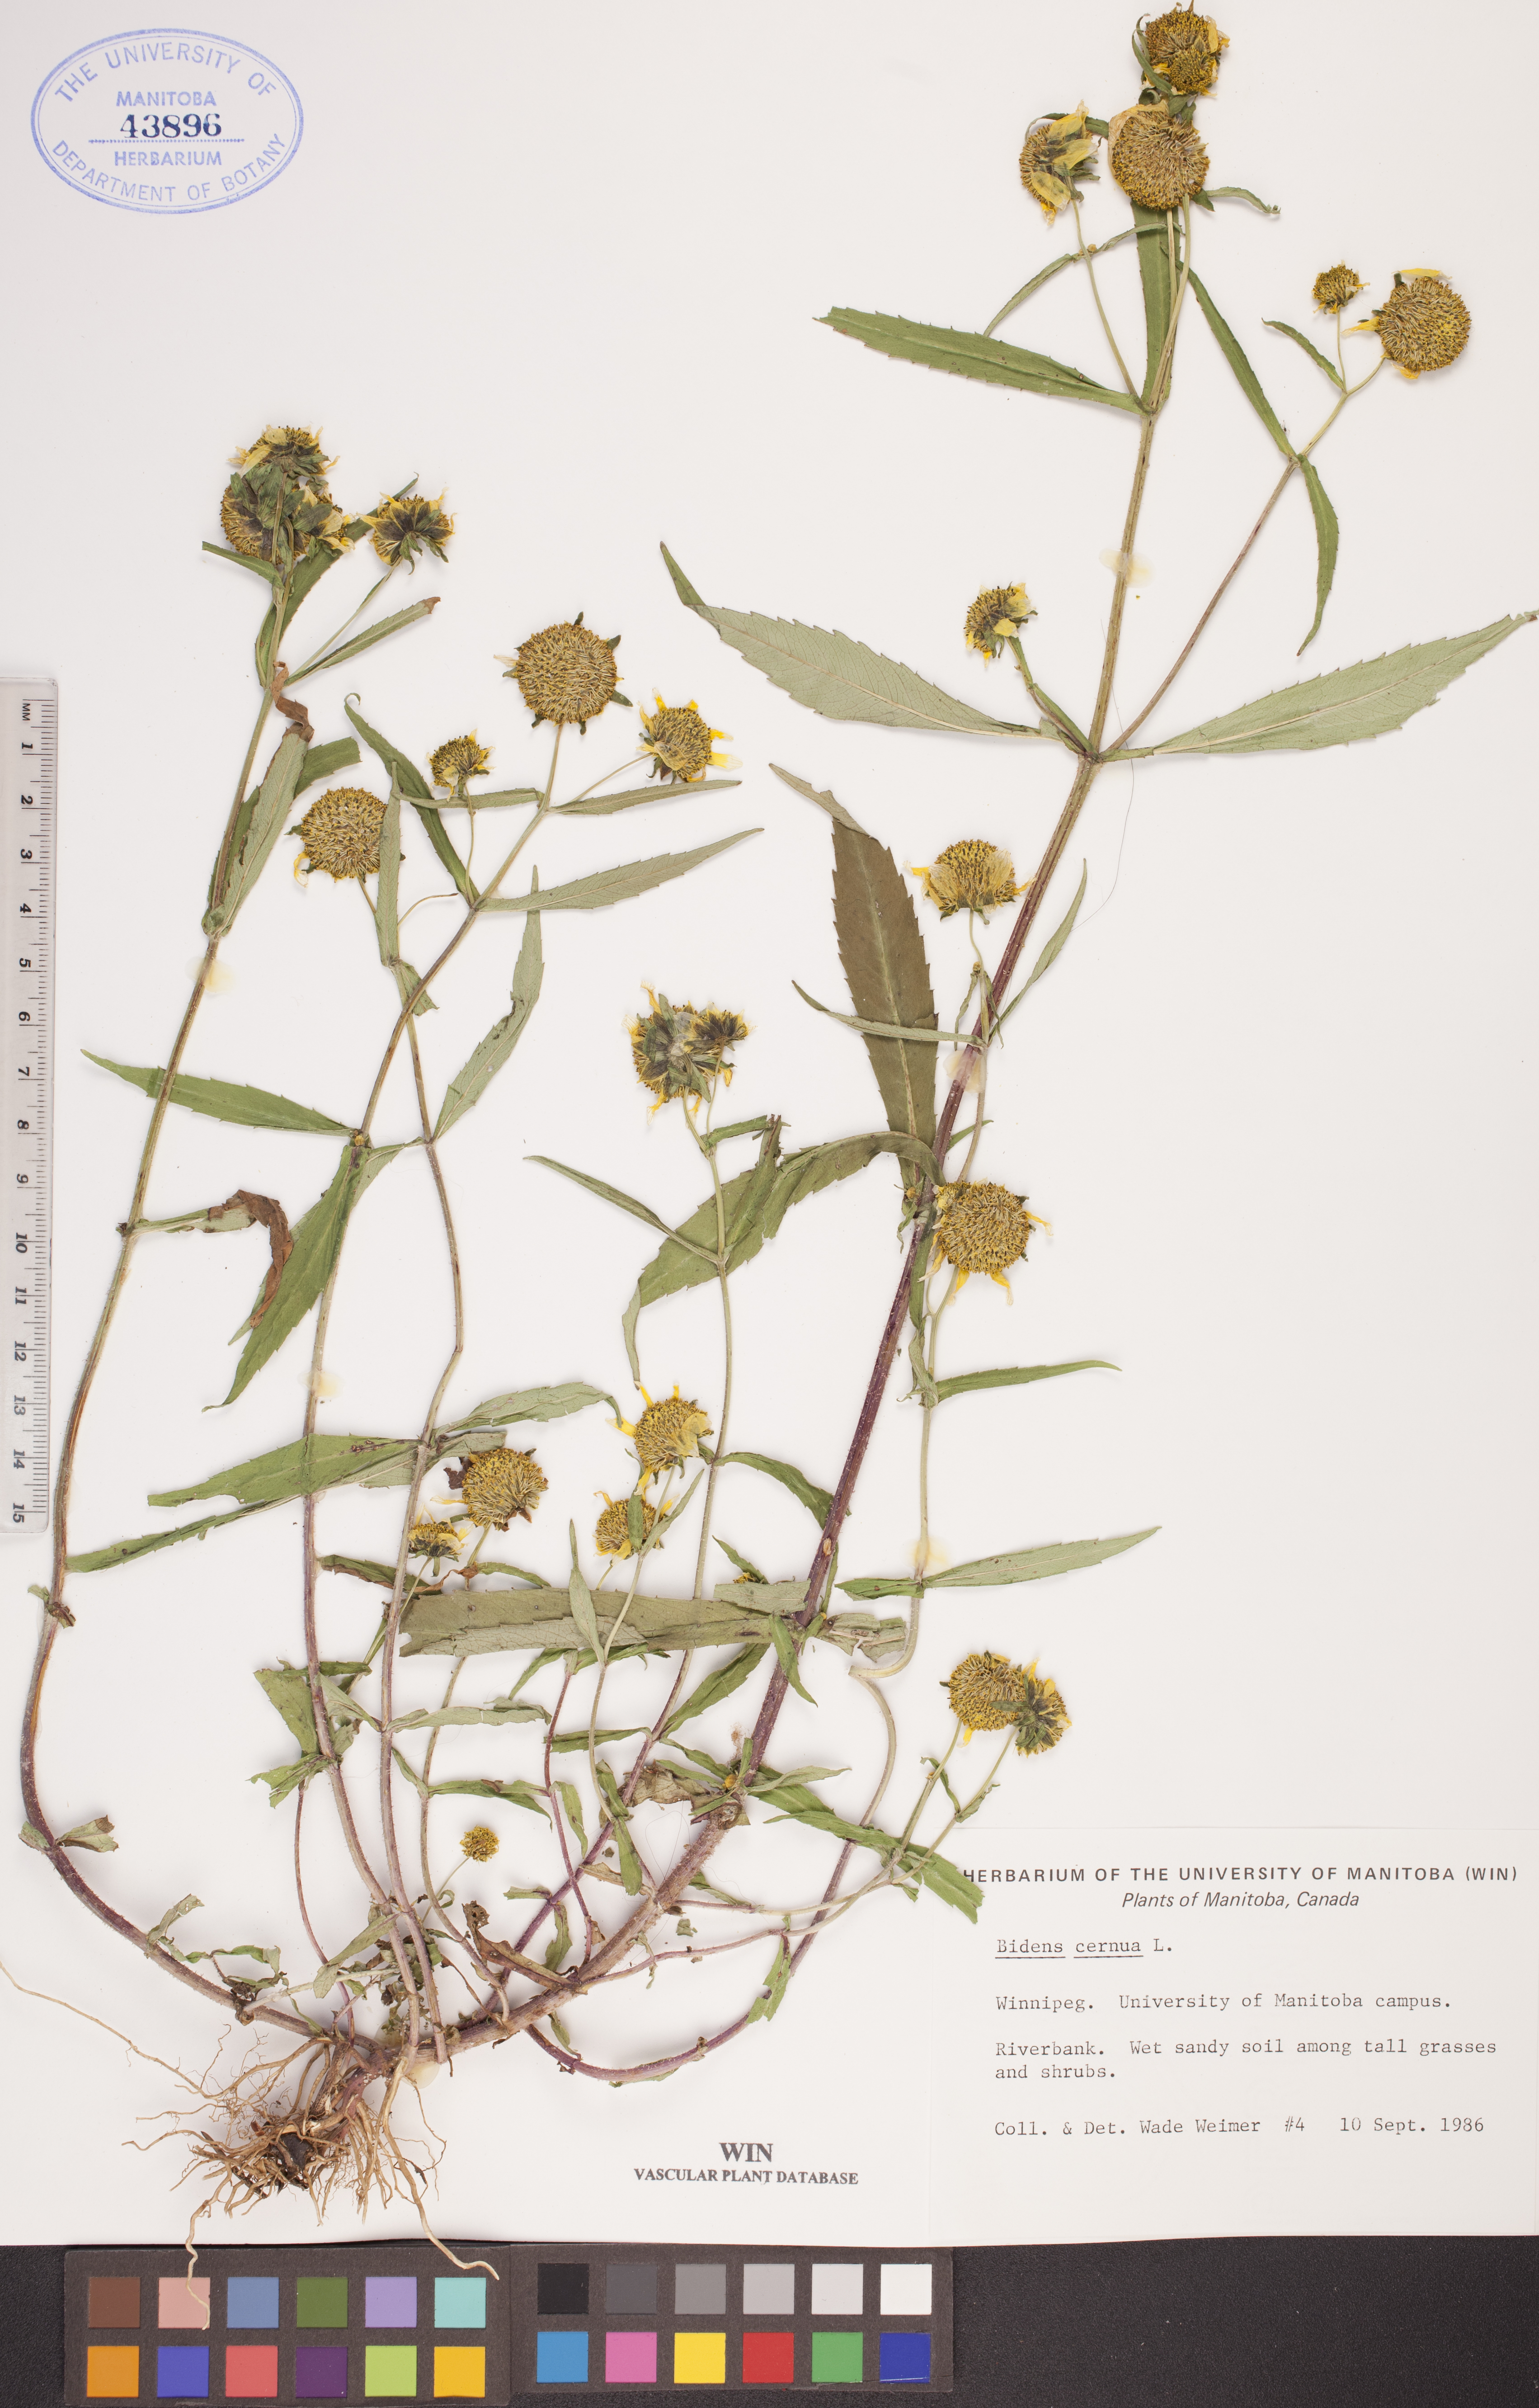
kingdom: Plantae
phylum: Tracheophyta
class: Magnoliopsida
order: Asterales
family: Asteraceae
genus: Bidens
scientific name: Bidens cernua
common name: Nodding bur-marigold
